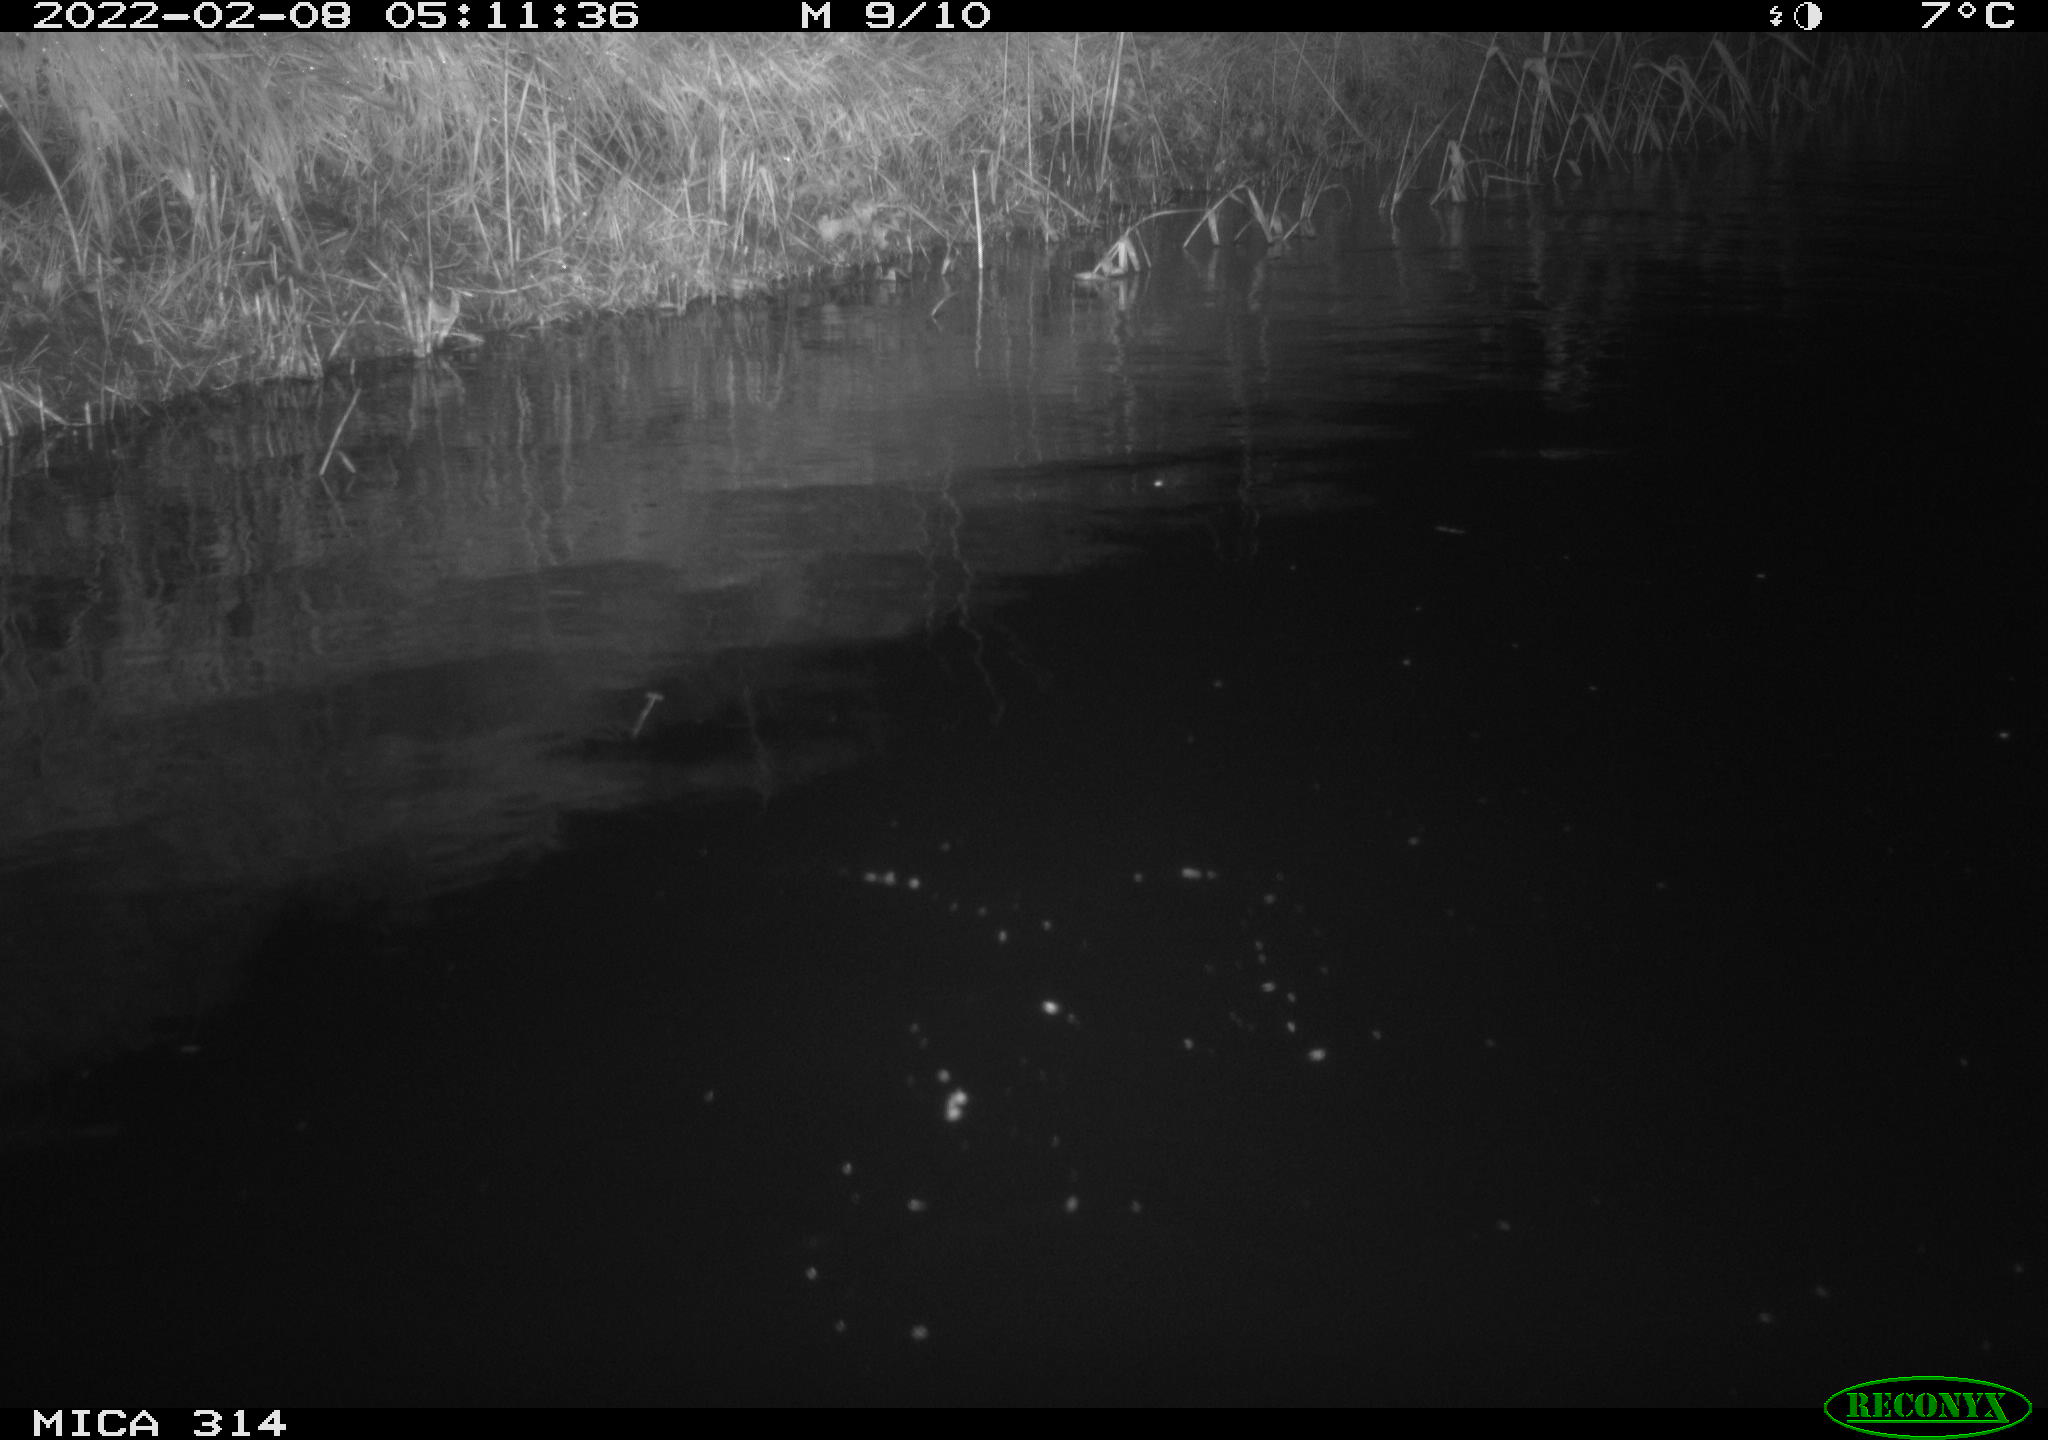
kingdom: Animalia
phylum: Chordata
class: Aves
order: Anseriformes
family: Anatidae
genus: Anas
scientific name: Anas platyrhynchos
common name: Mallard
